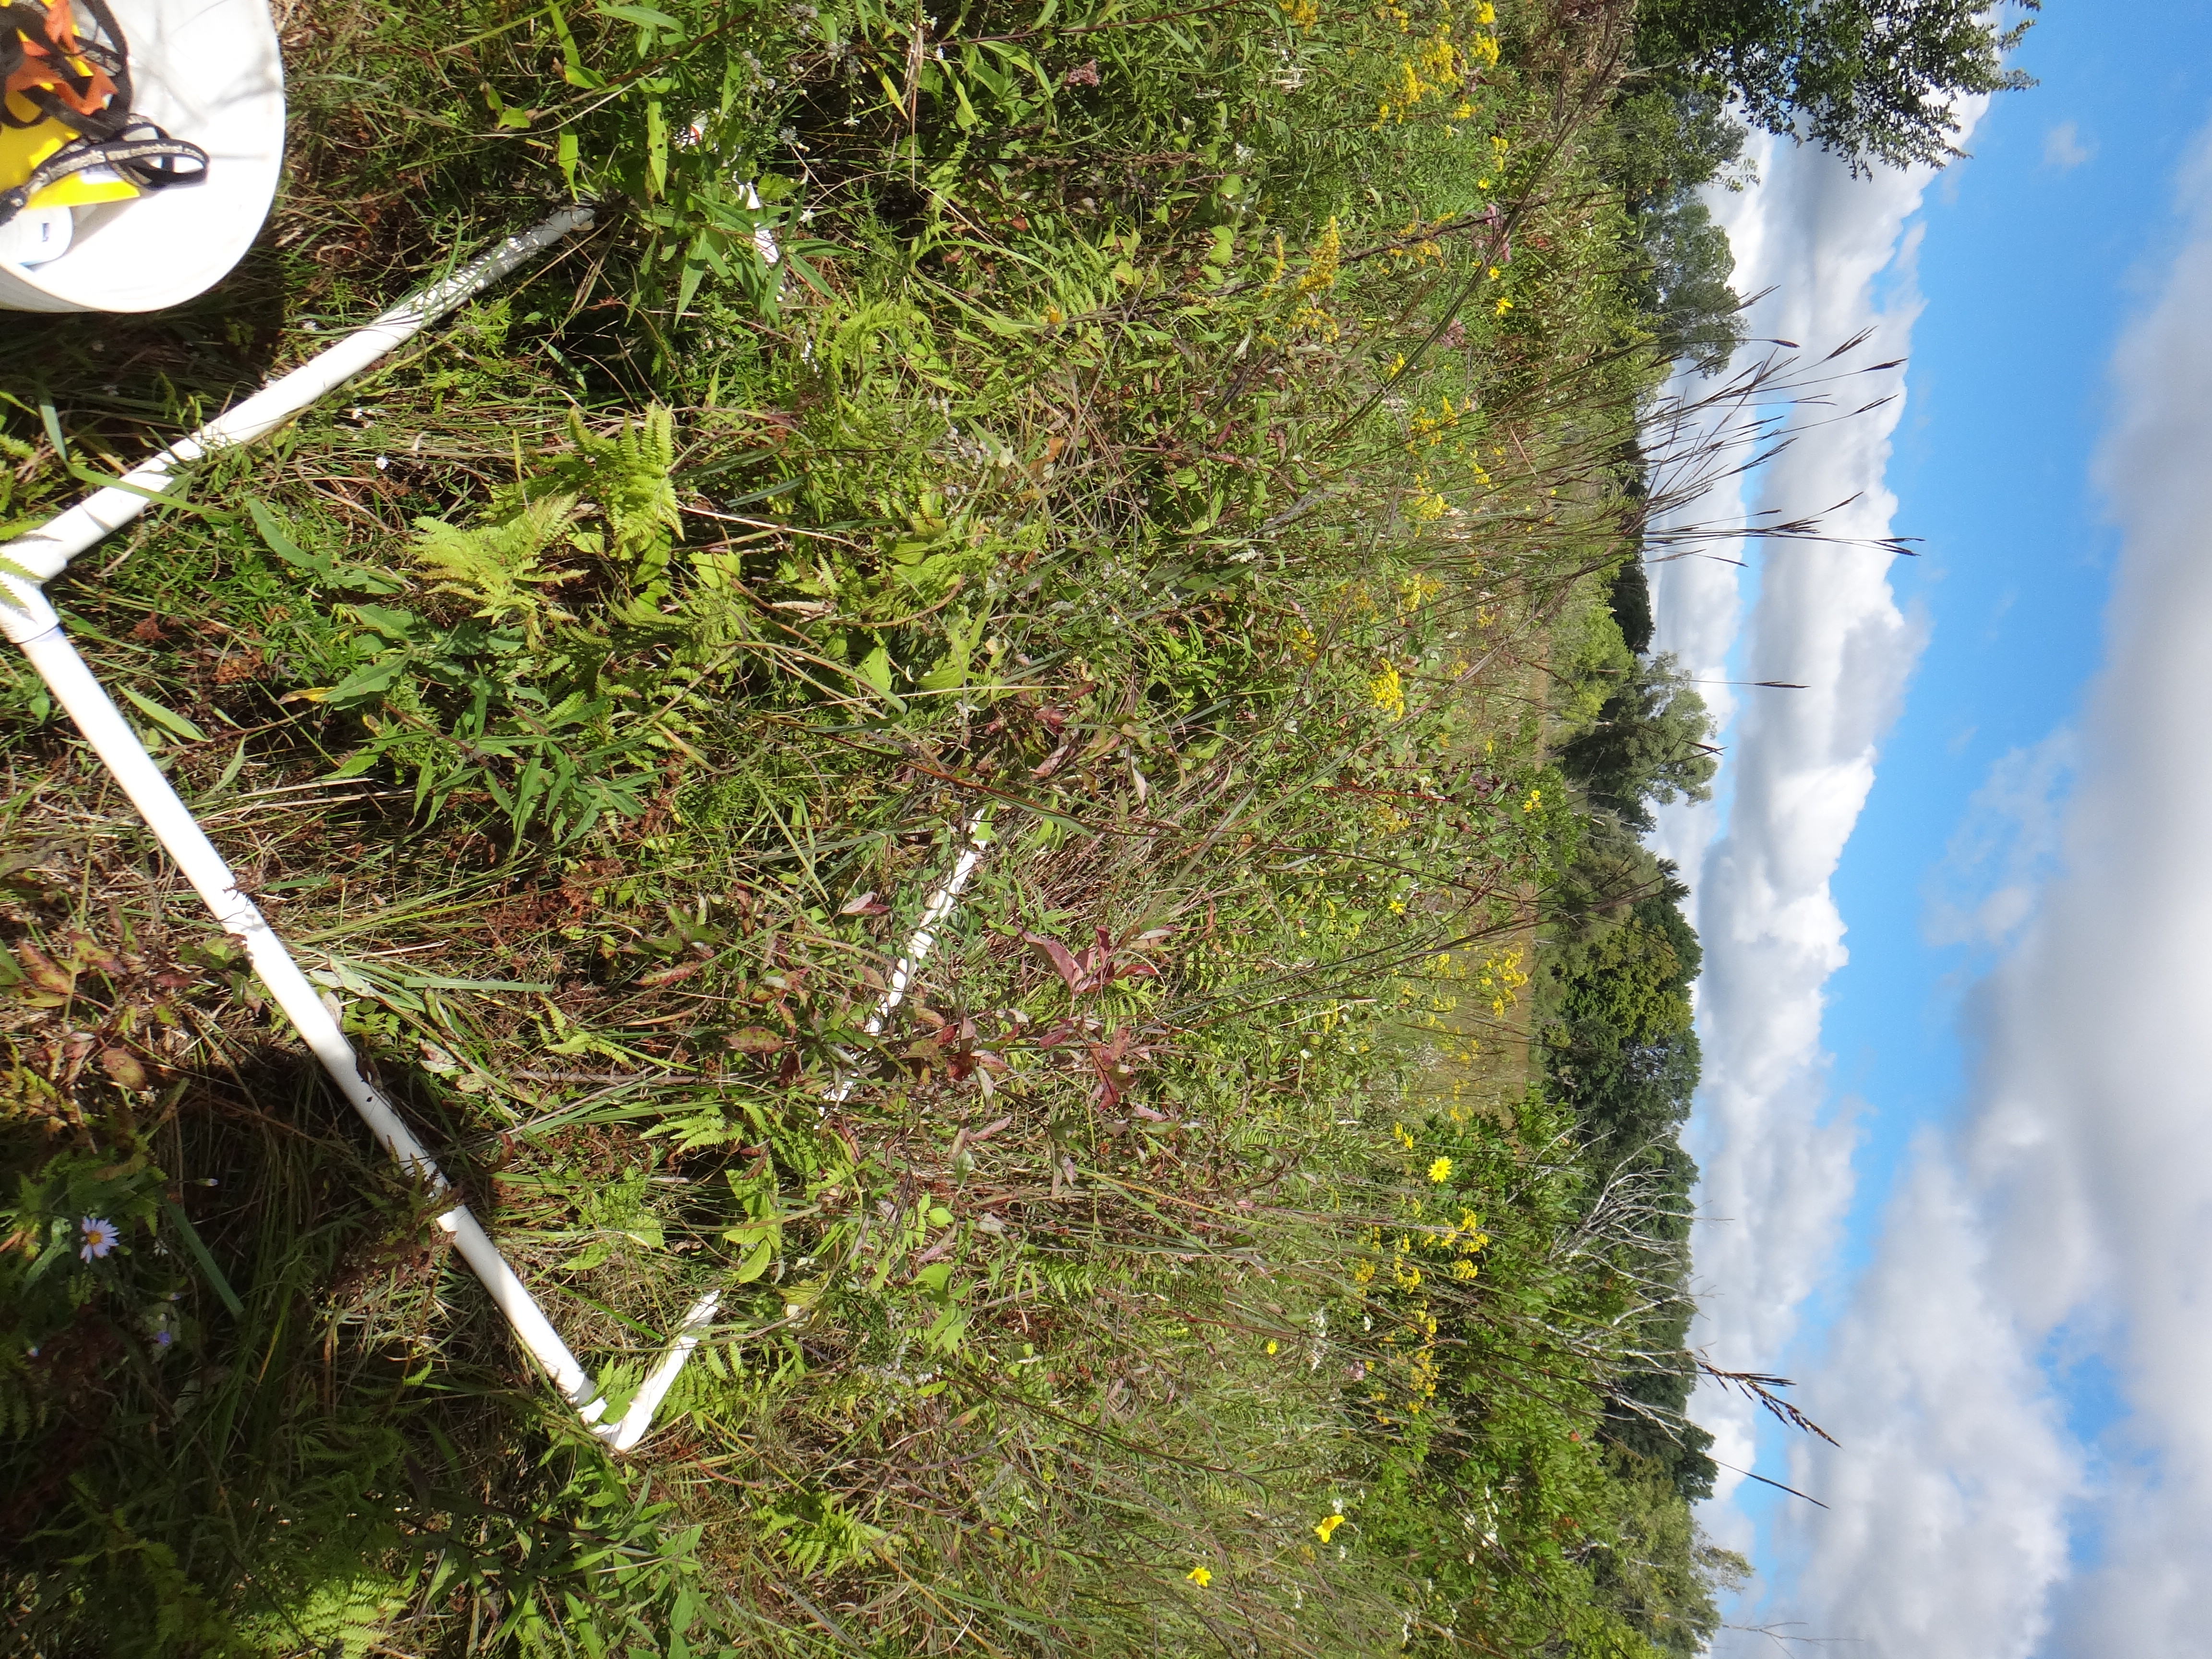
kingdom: Plantae
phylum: Tracheophyta
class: Liliopsida
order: Poales
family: Cyperaceae
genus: Carex
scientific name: Carex stricta
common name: Hummock sedge
